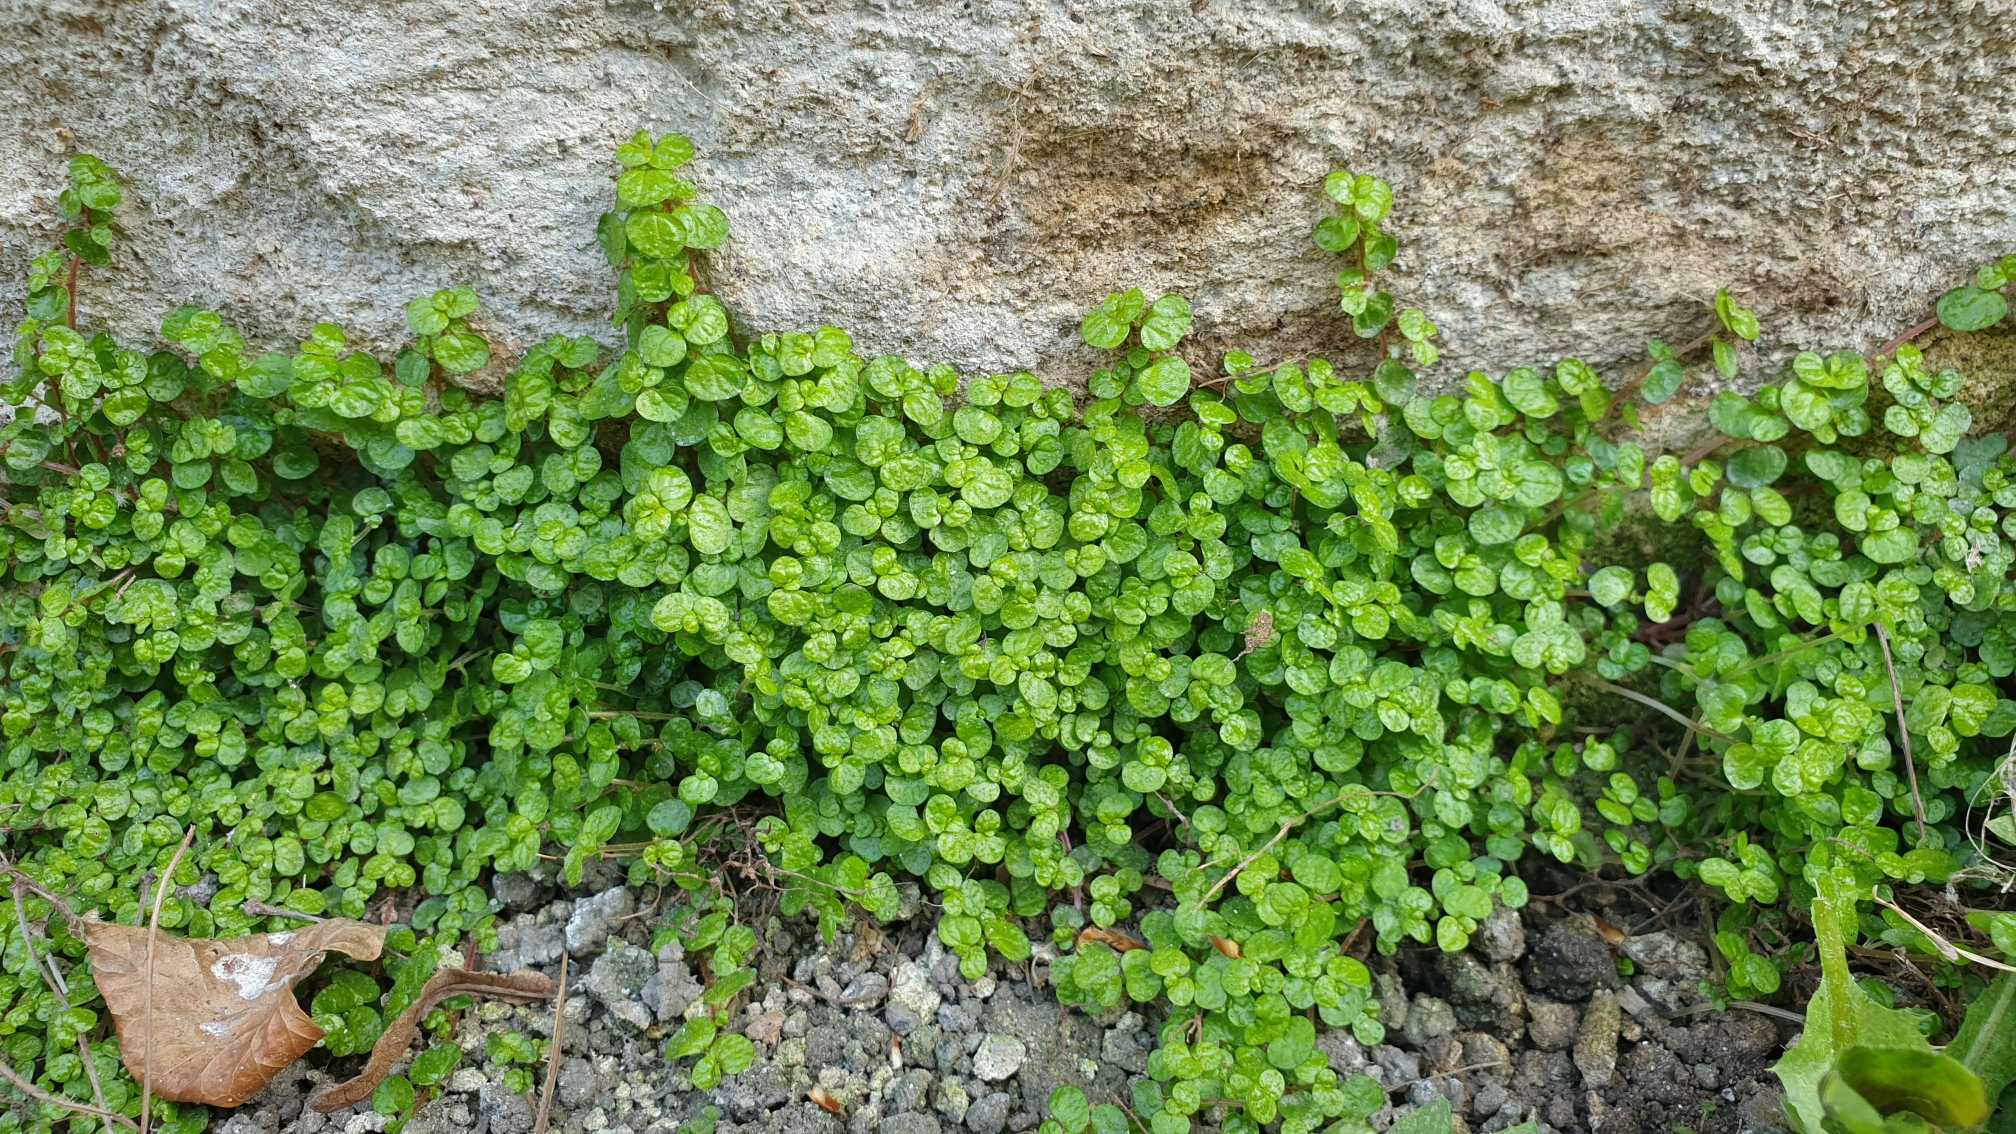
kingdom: Plantae
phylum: Tracheophyta
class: Magnoliopsida
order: Rosales
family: Urticaceae
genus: Soleirolia
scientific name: Soleirolia soleirolii
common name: Husfred
